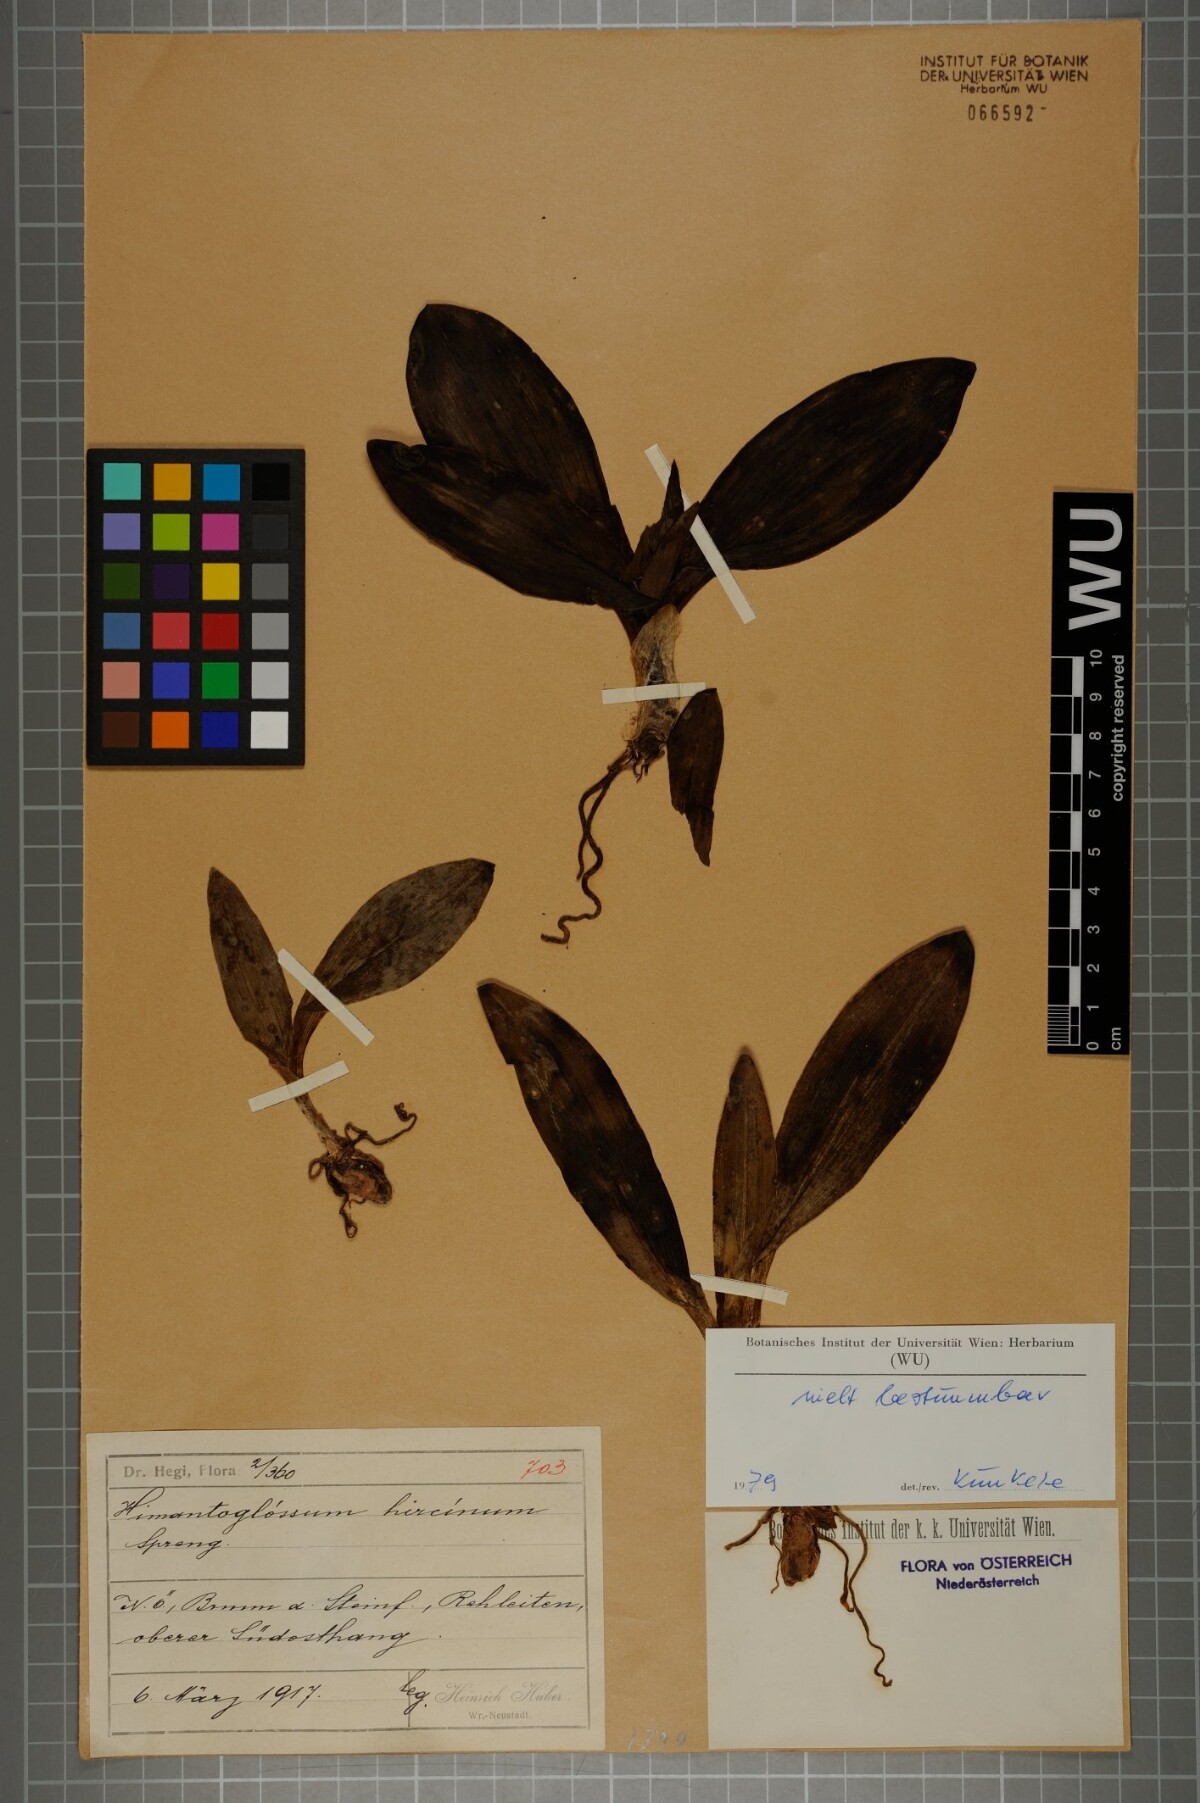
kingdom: Plantae
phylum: Tracheophyta
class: Liliopsida
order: Asparagales
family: Orchidaceae
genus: Himantoglossum
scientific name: Himantoglossum adriaticum
